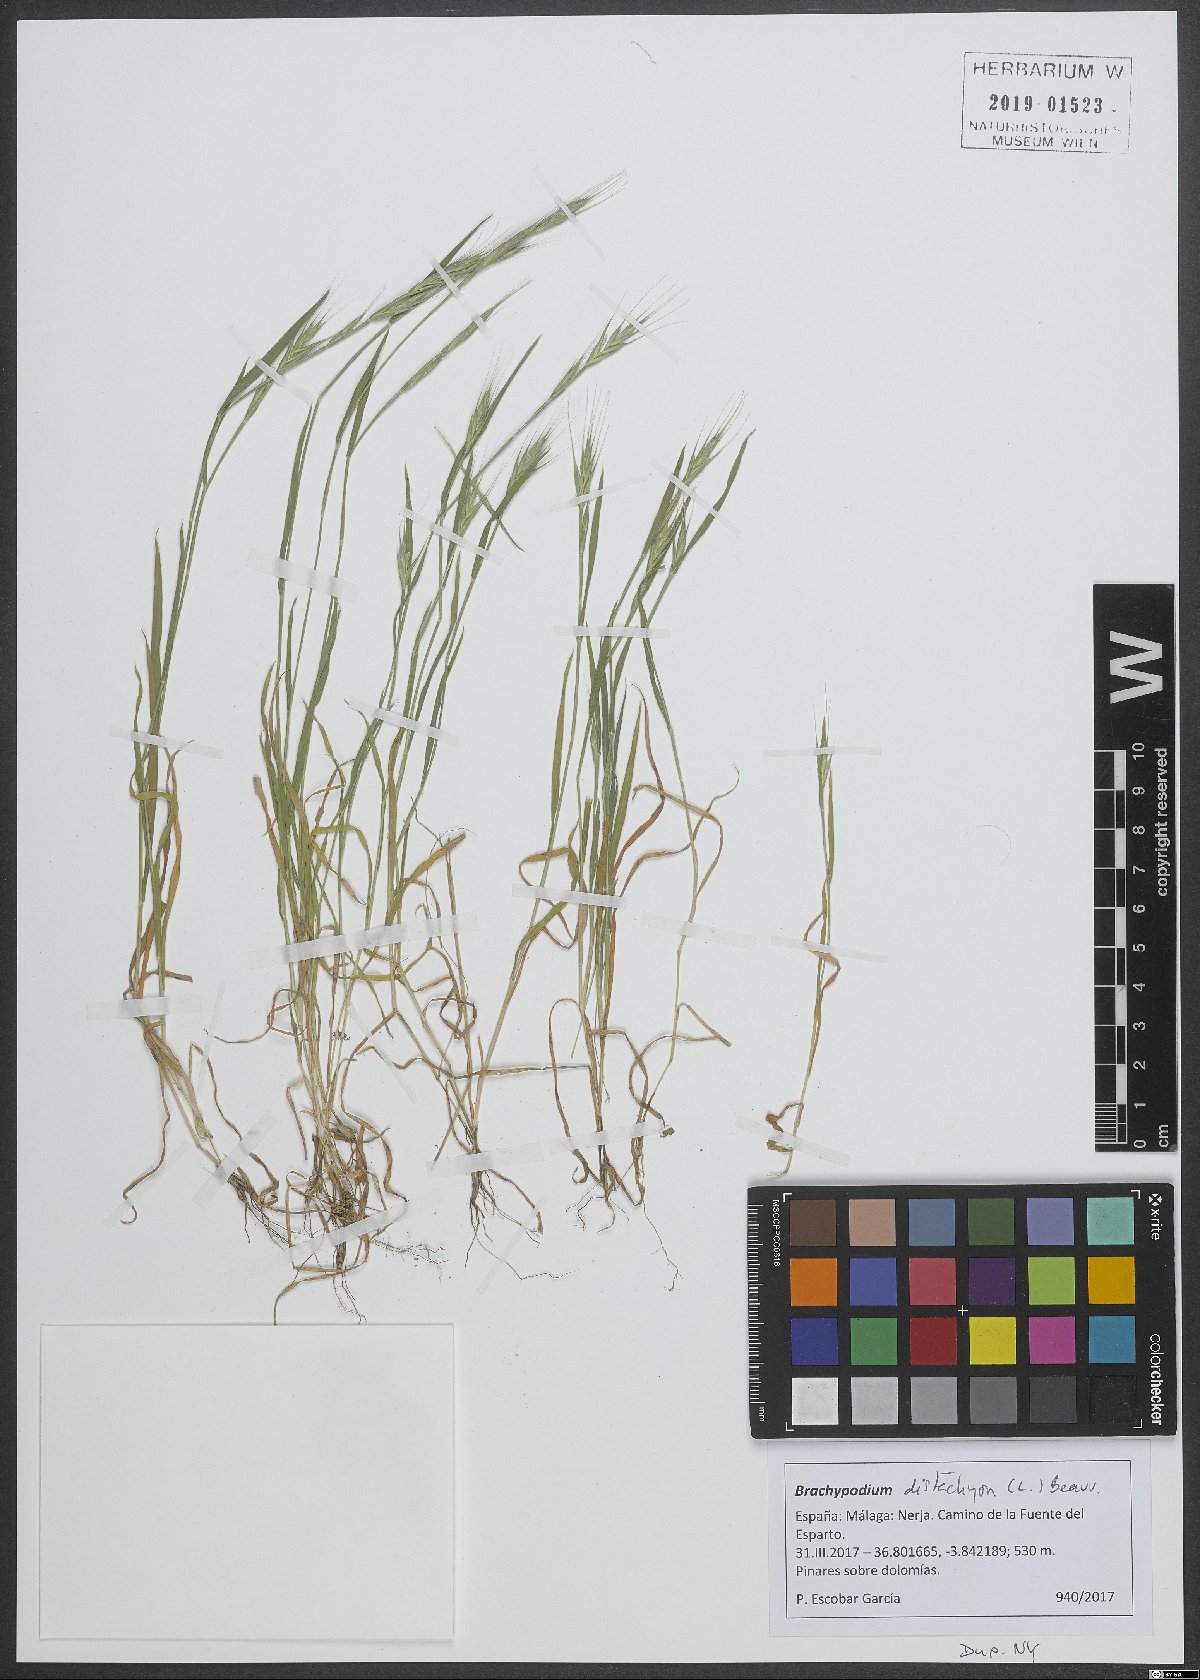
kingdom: Plantae
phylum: Tracheophyta
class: Liliopsida
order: Poales
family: Poaceae
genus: Brachypodium
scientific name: Brachypodium distachyon
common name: Stiff brome
